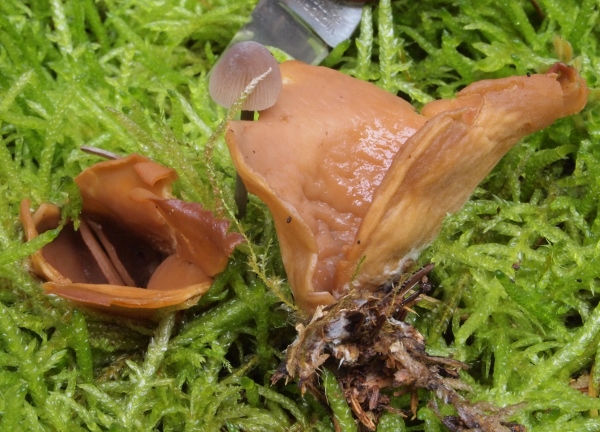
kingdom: Fungi
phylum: Ascomycota
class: Pezizomycetes
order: Pezizales
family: Otideaceae
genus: Otidea
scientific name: Otidea leporina
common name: hare-ørebæger
